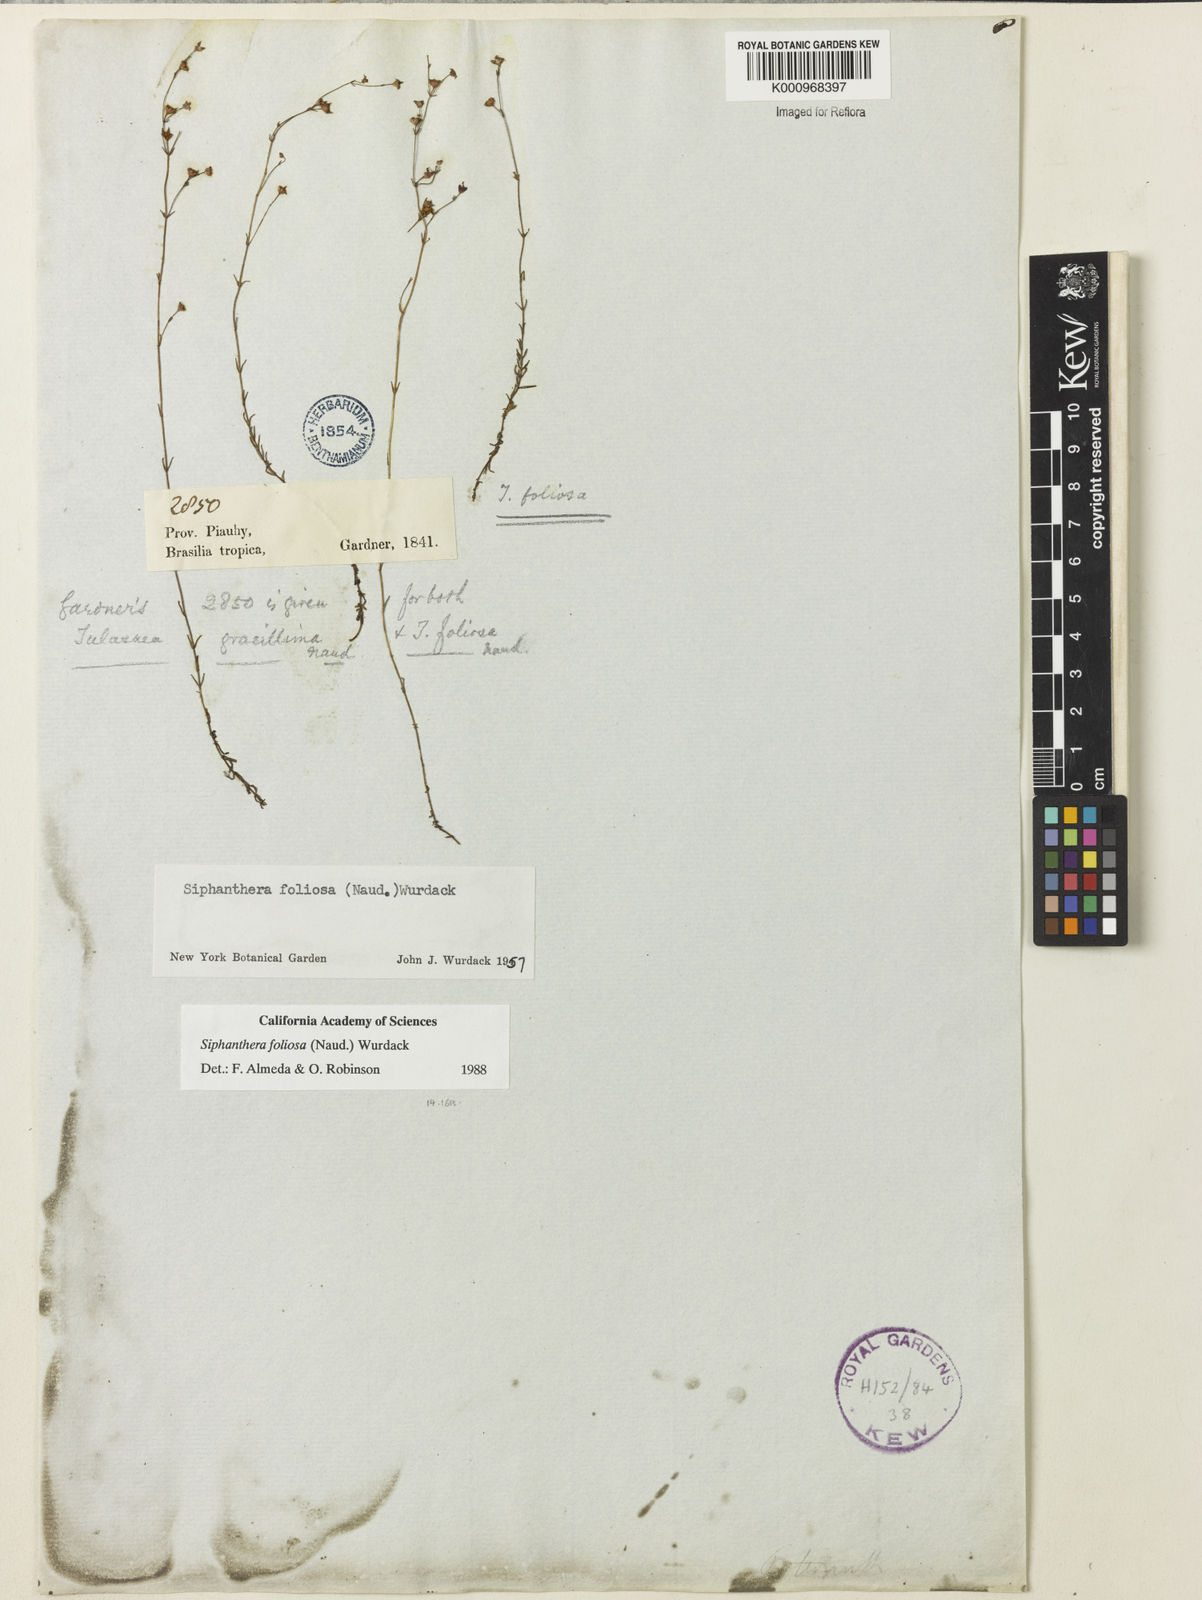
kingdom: Plantae
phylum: Tracheophyta
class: Magnoliopsida
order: Myrtales
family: Melastomataceae
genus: Siphanthera
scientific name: Siphanthera foliosa
